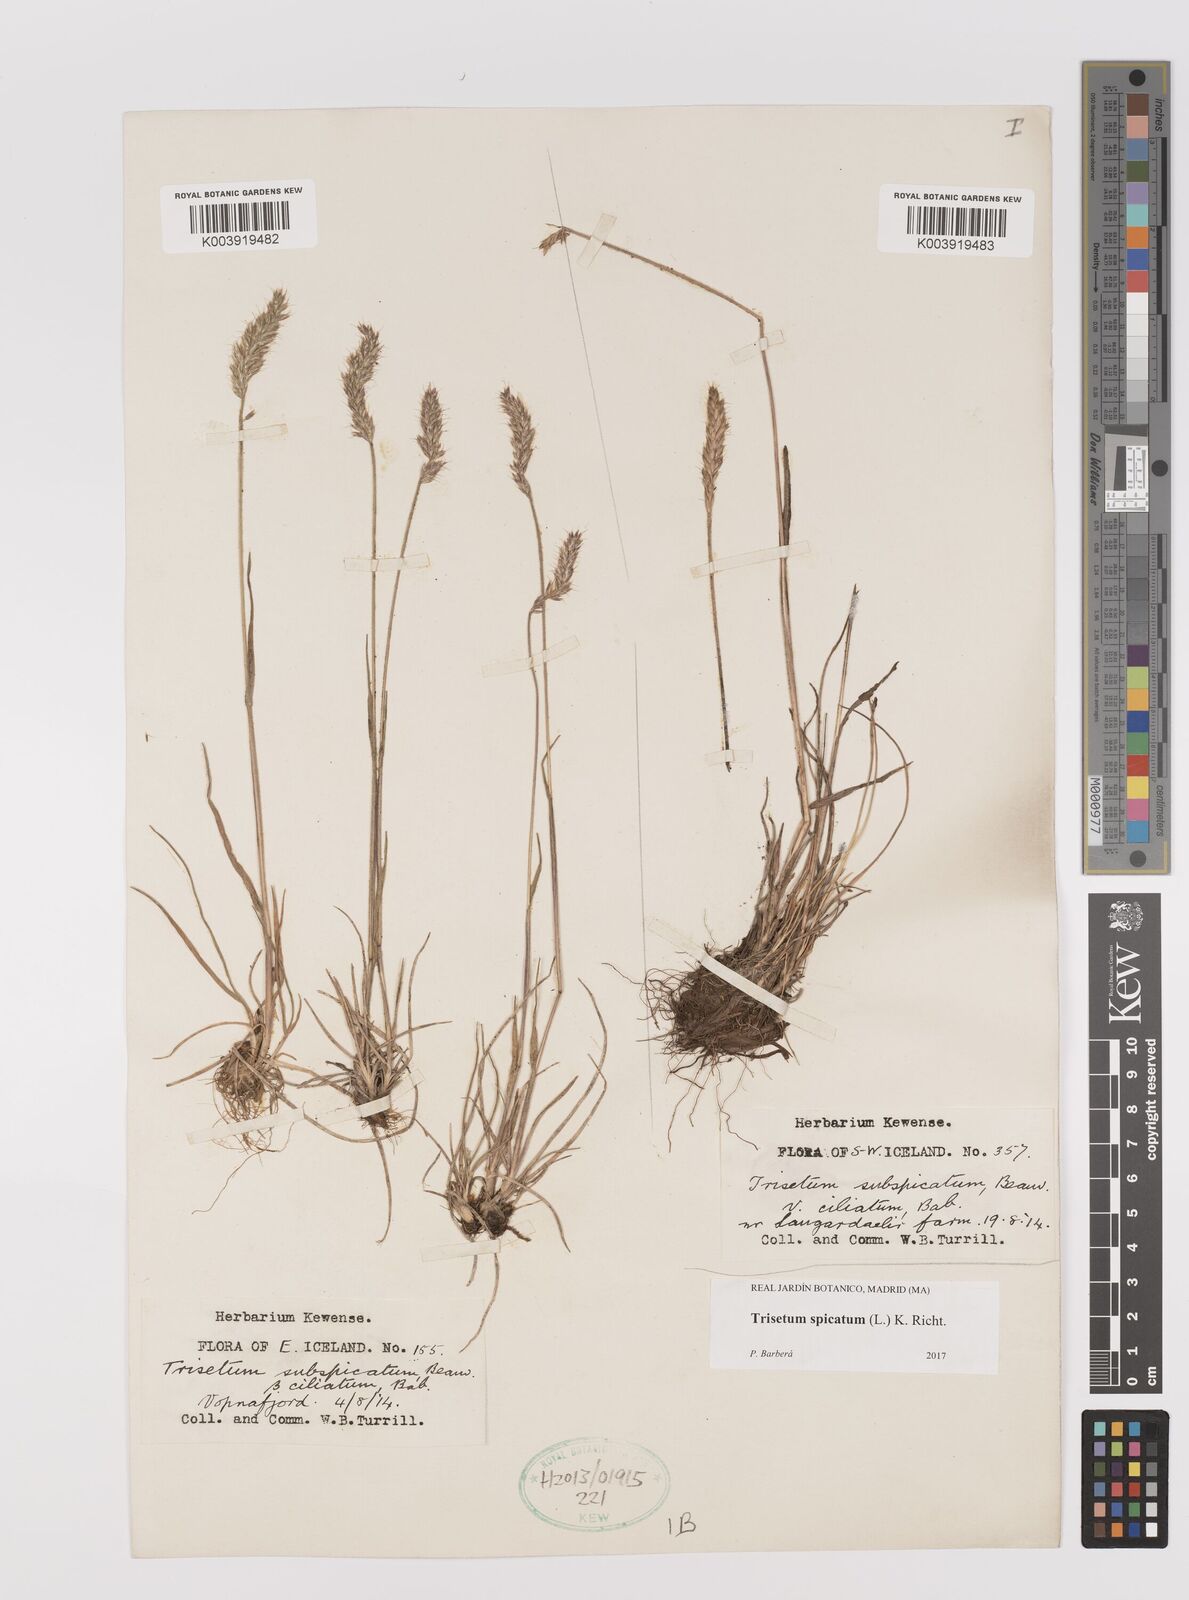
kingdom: Plantae
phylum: Tracheophyta
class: Liliopsida
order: Poales
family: Poaceae
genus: Koeleria
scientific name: Koeleria spicata
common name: Mountain trisetum
